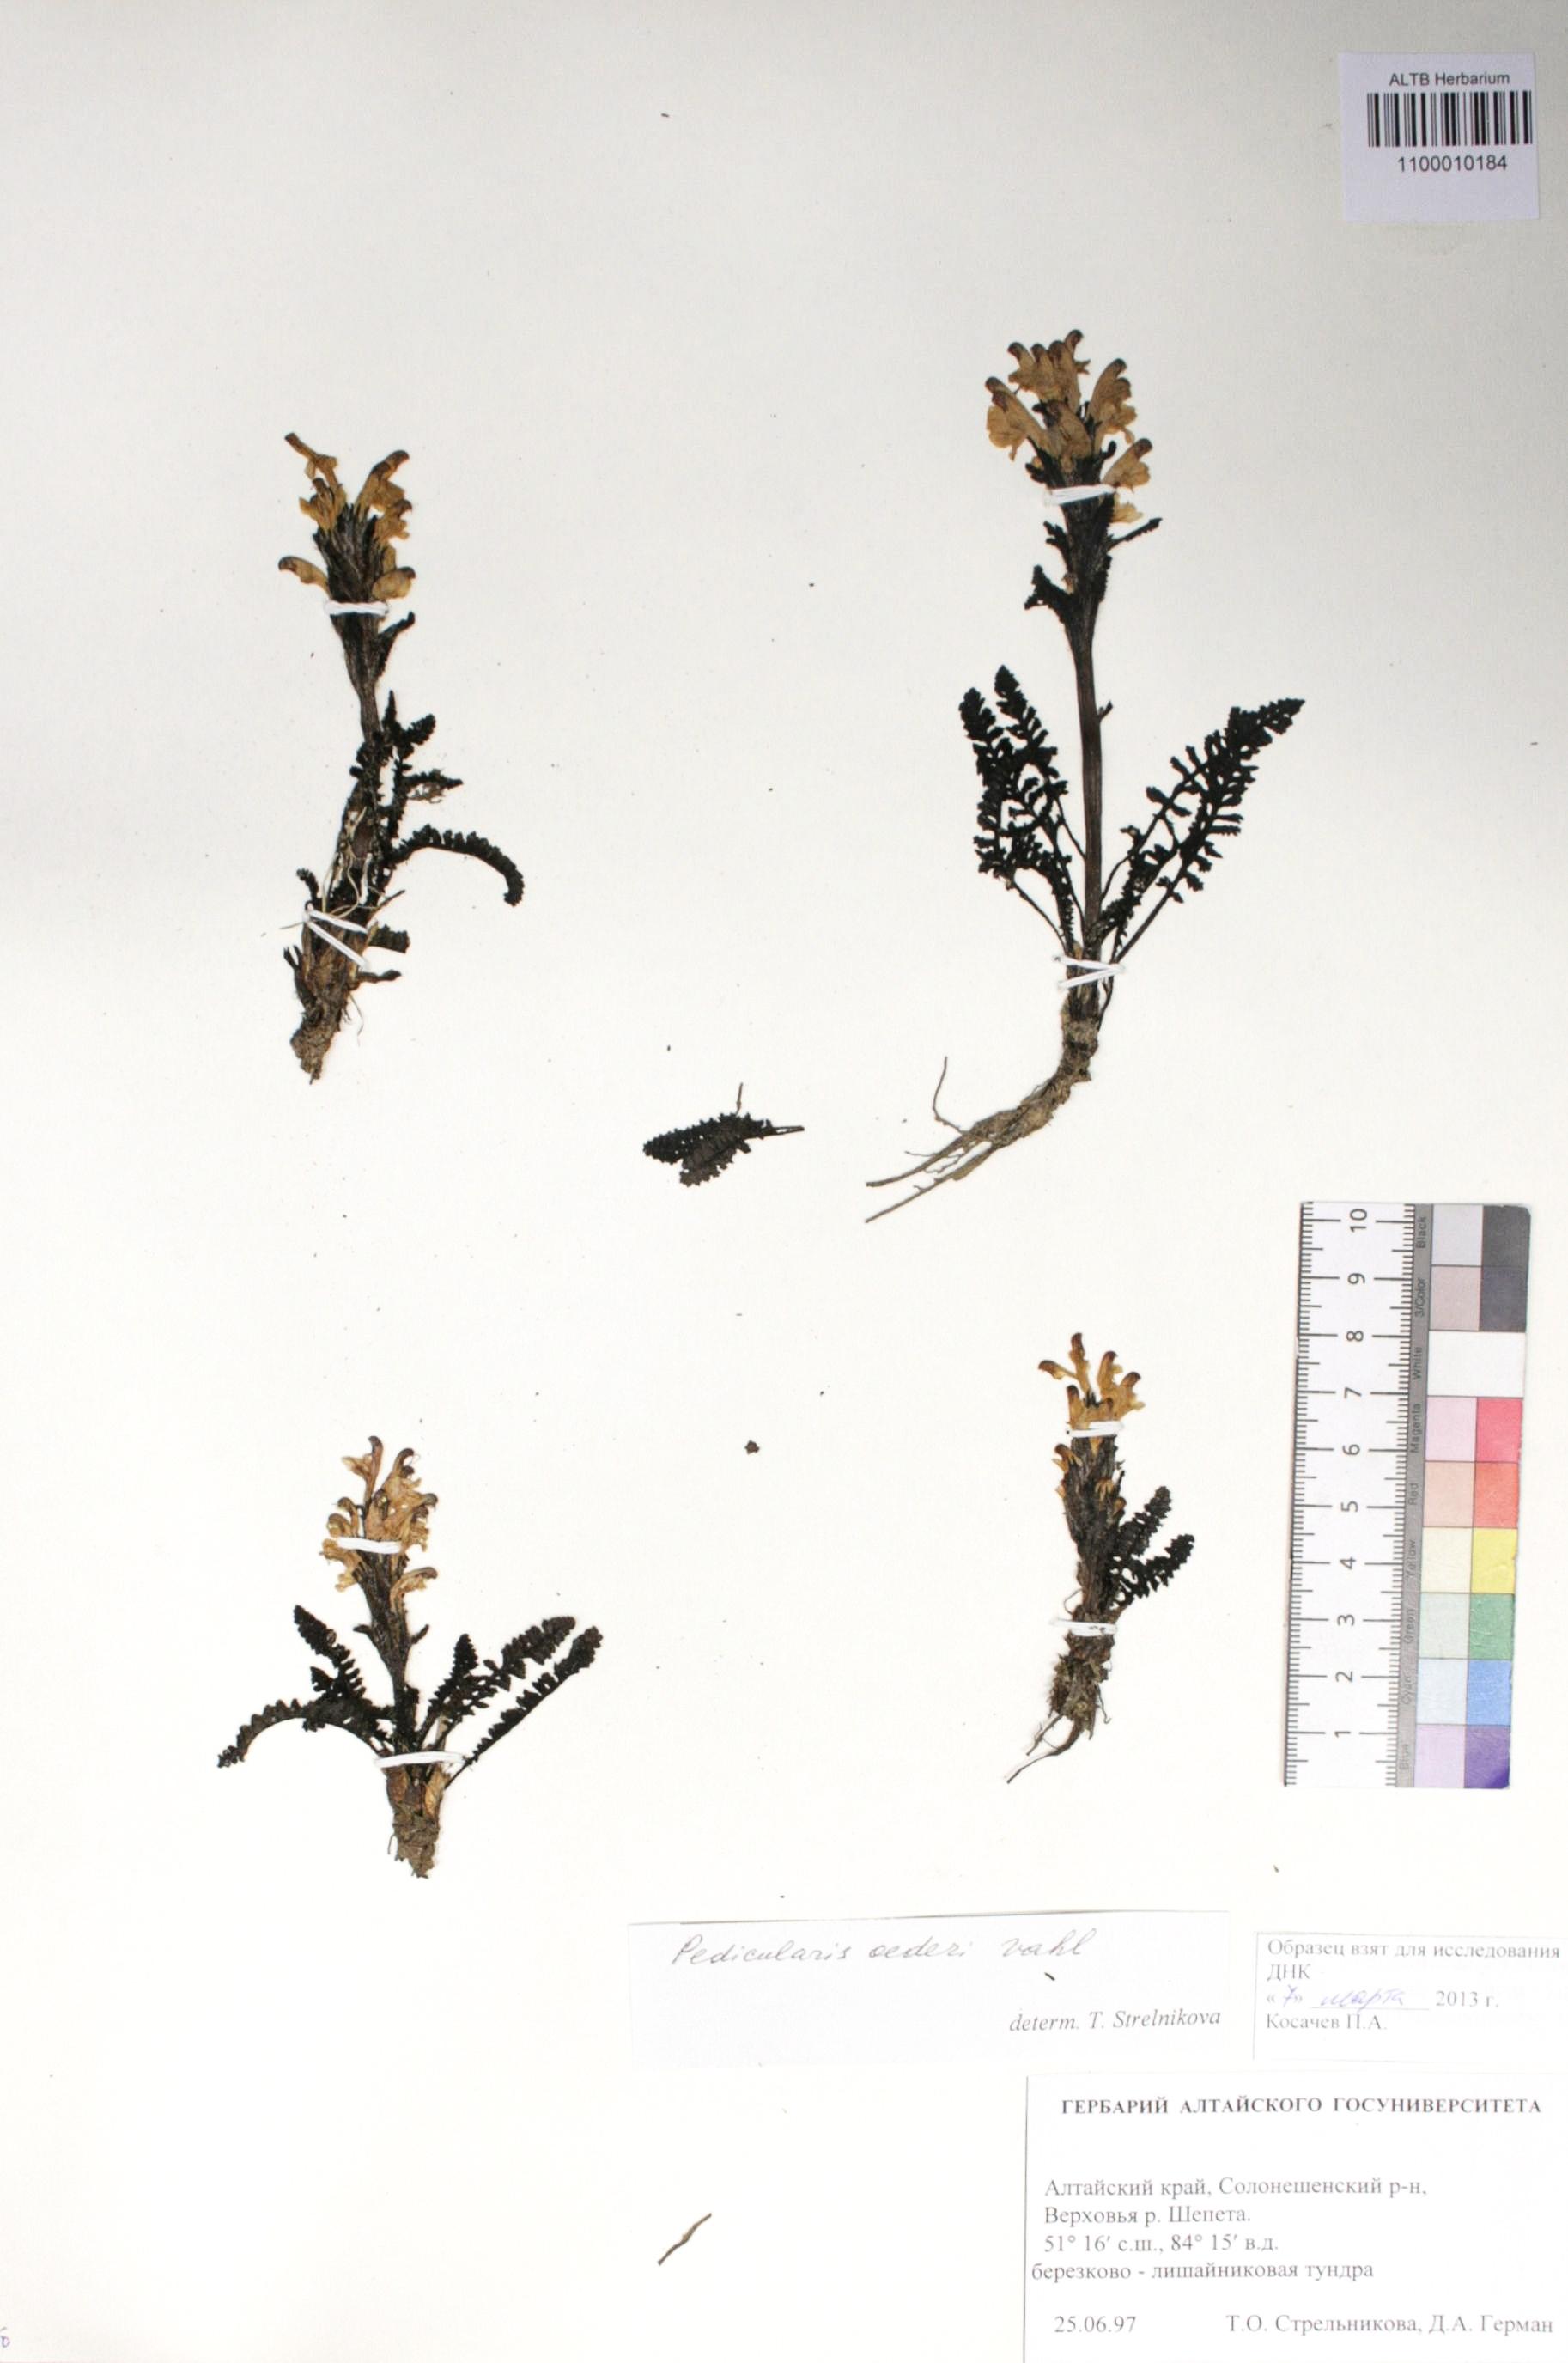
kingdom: Plantae
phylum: Tracheophyta
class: Magnoliopsida
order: Caryophyllales
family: Caryophyllaceae
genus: Silene
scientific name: Silene graminifolia
